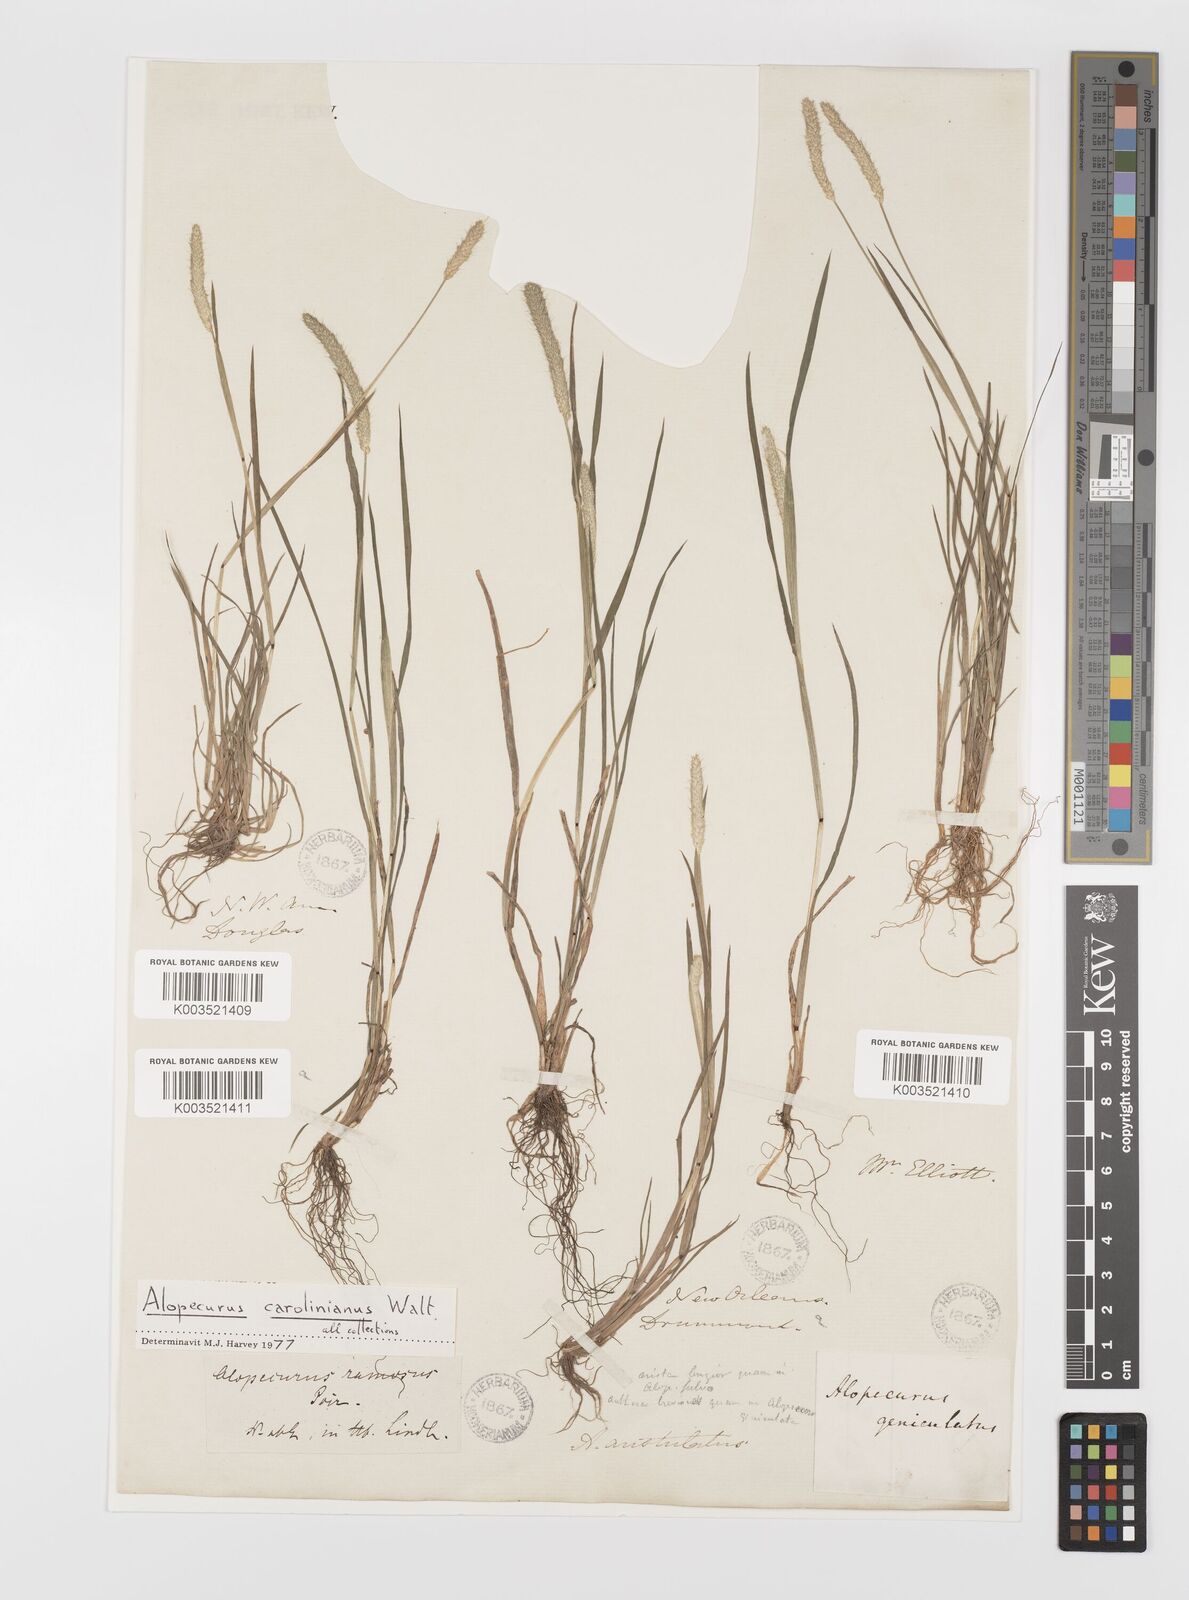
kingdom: Plantae
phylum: Tracheophyta
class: Liliopsida
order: Poales
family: Poaceae
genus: Alopecurus
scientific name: Alopecurus carolinianus
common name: Tufted foxtail
